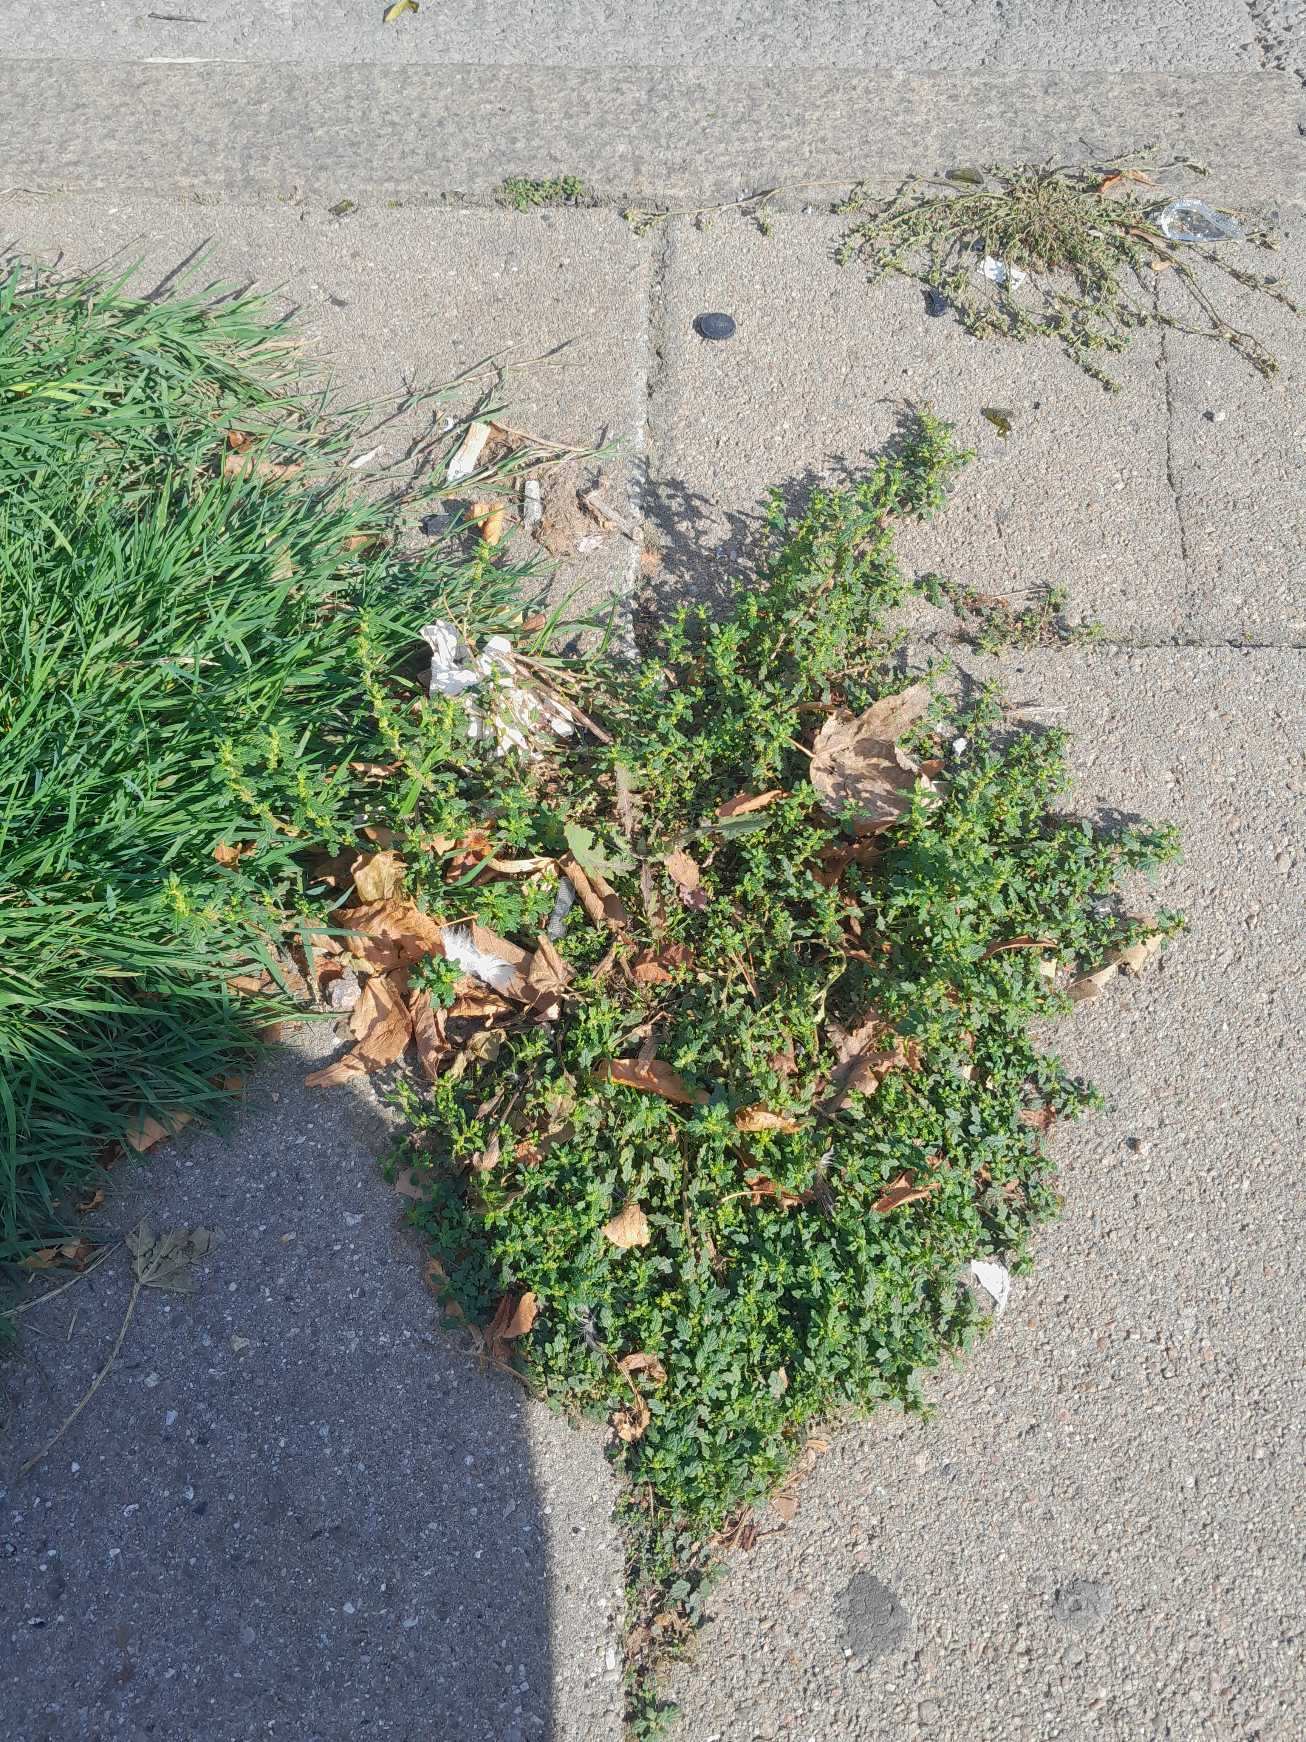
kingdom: Plantae
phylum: Tracheophyta
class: Magnoliopsida
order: Caryophyllales
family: Amaranthaceae
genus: Dysphania
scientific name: Dysphania pumilio
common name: Dværg-gåsefod
